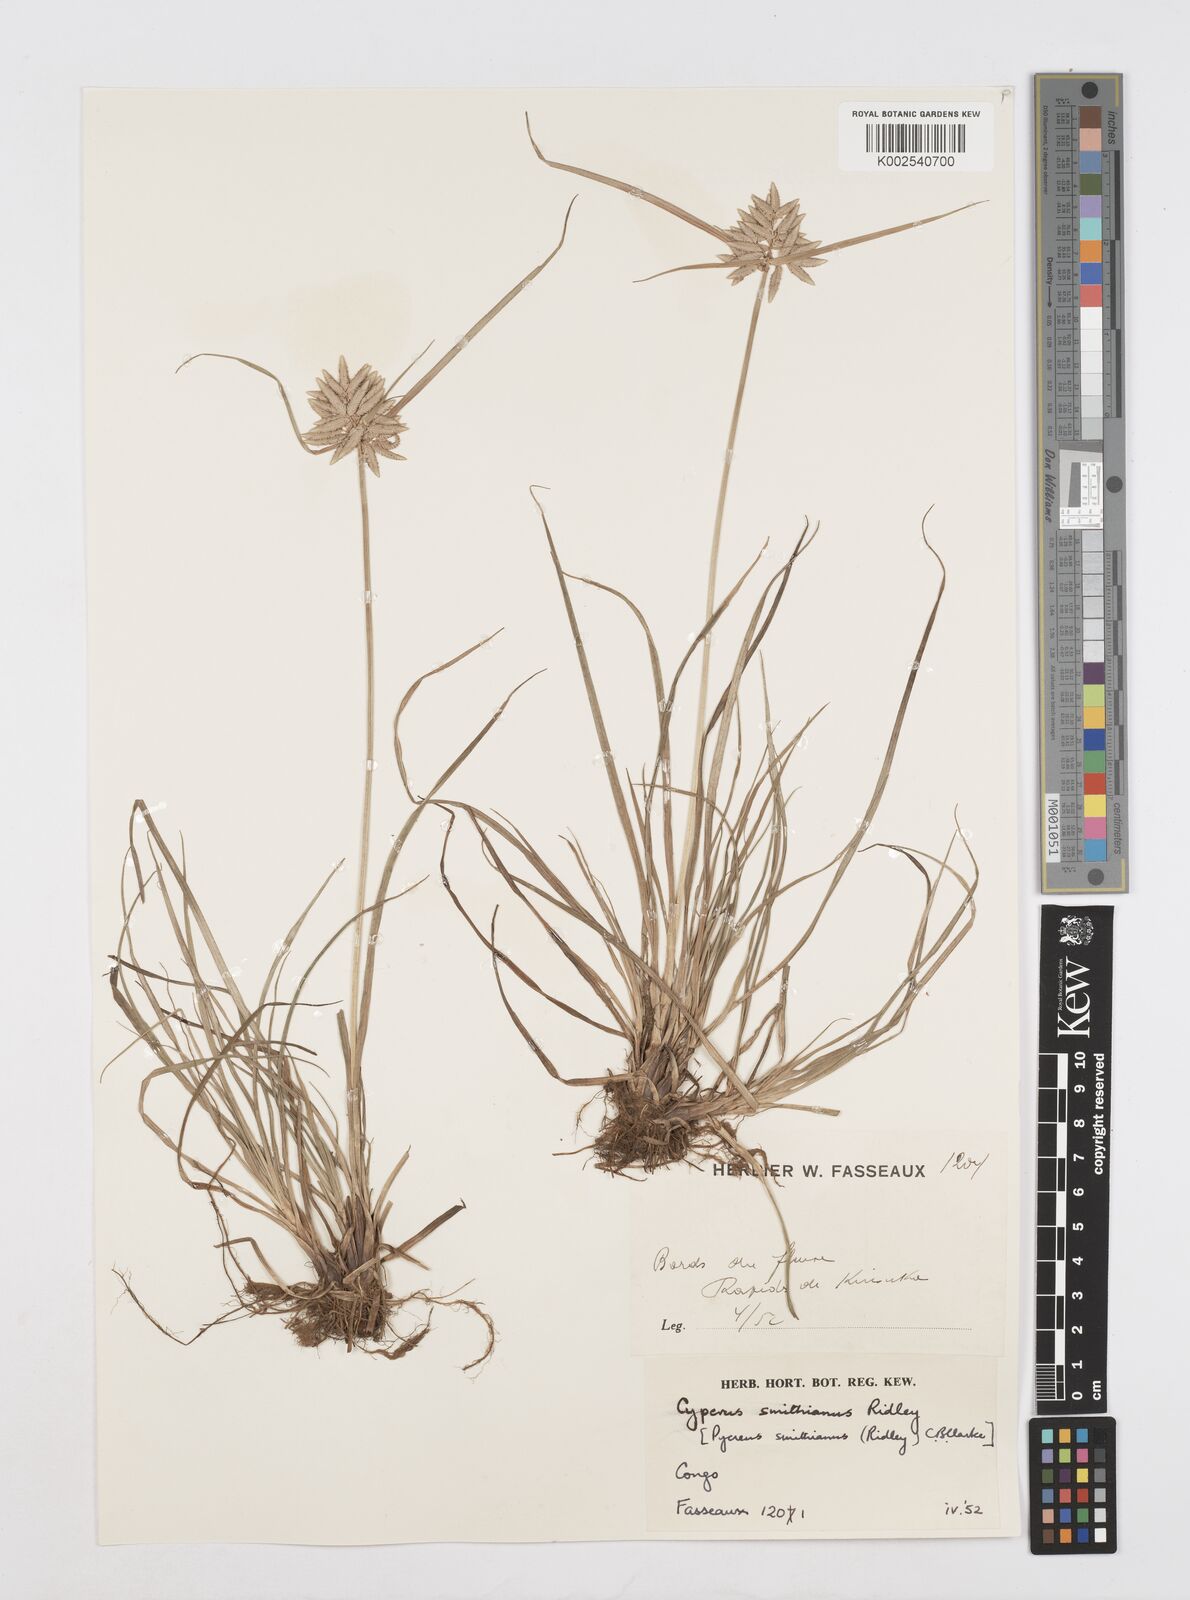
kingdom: Plantae
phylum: Tracheophyta
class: Liliopsida
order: Poales
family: Cyperaceae
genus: Cyperus
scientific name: Cyperus smithianus
